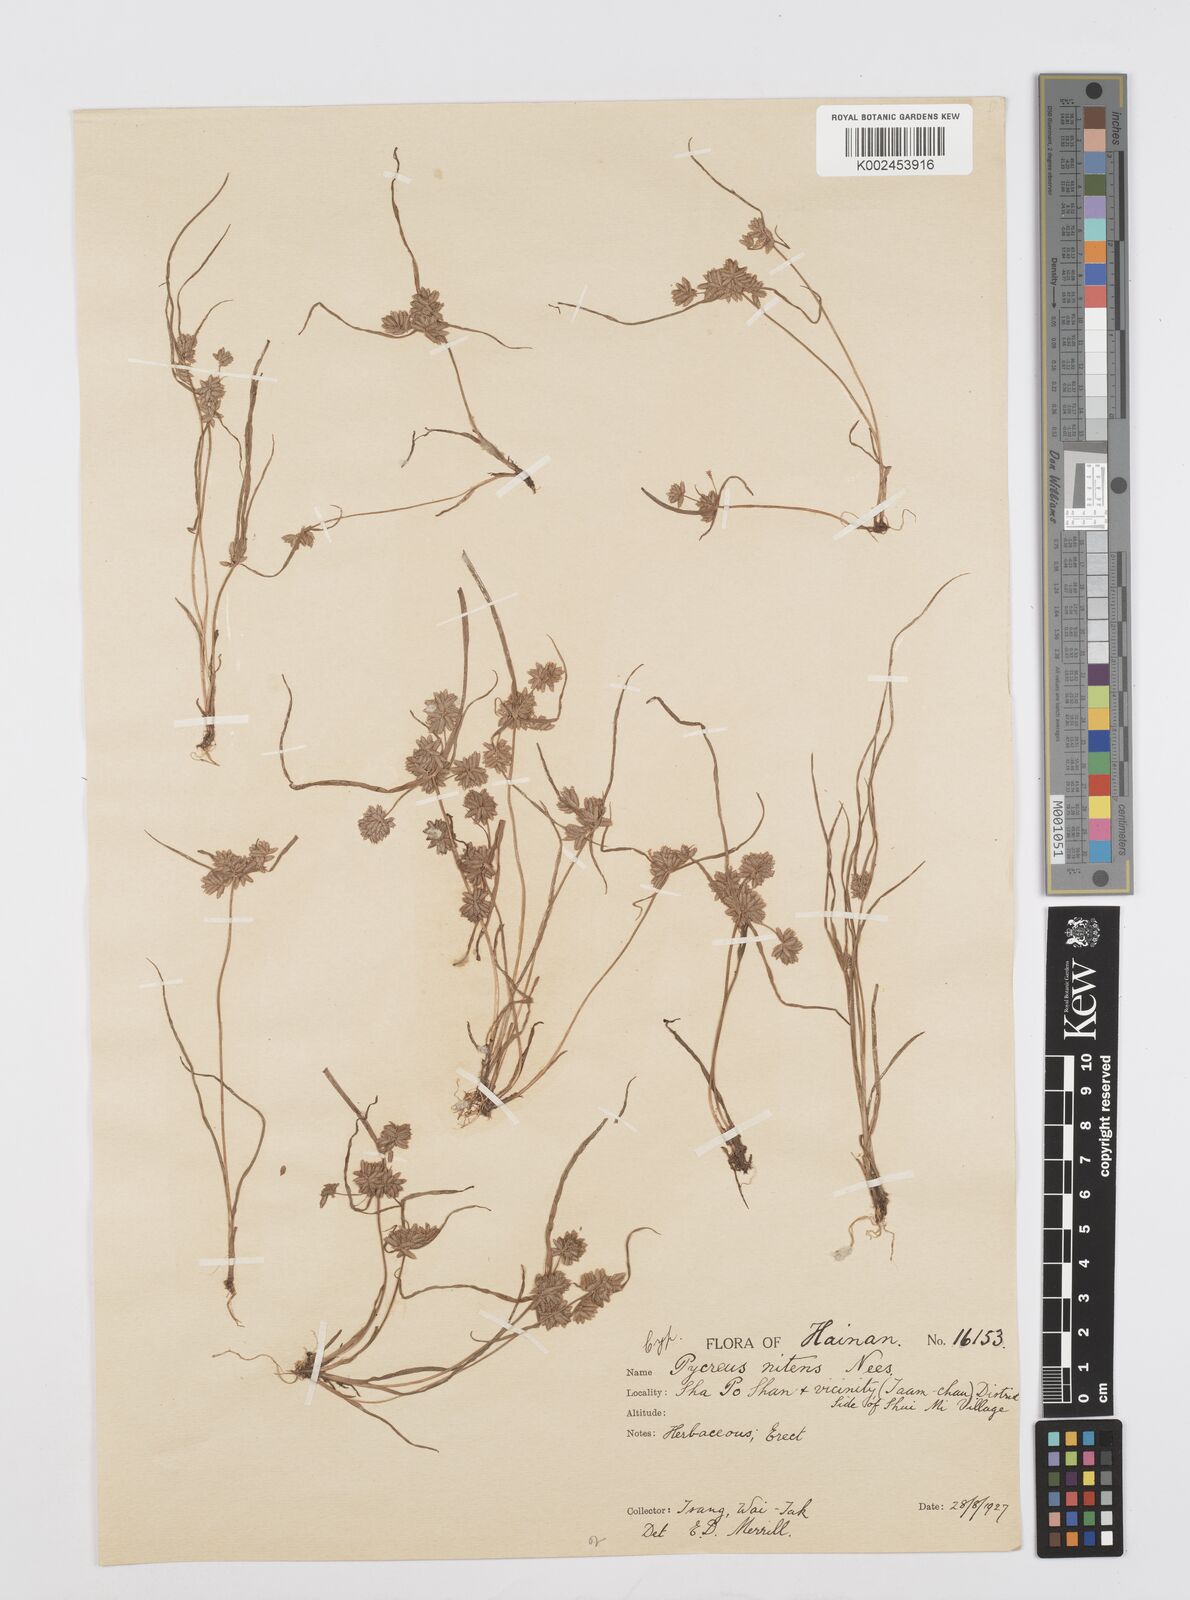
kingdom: Plantae
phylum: Tracheophyta
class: Liliopsida
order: Poales
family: Cyperaceae
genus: Cyperus
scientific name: Cyperus pumilus
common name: Low flatsedge
